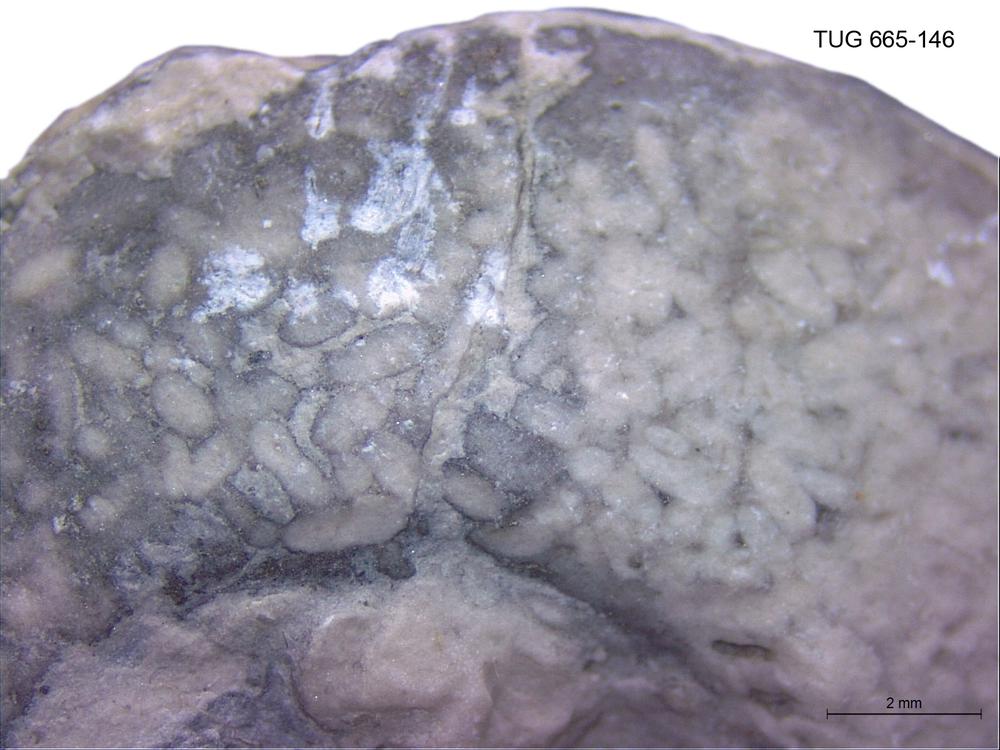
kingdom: Animalia
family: Coprulidae
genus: Coprulus
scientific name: Coprulus
